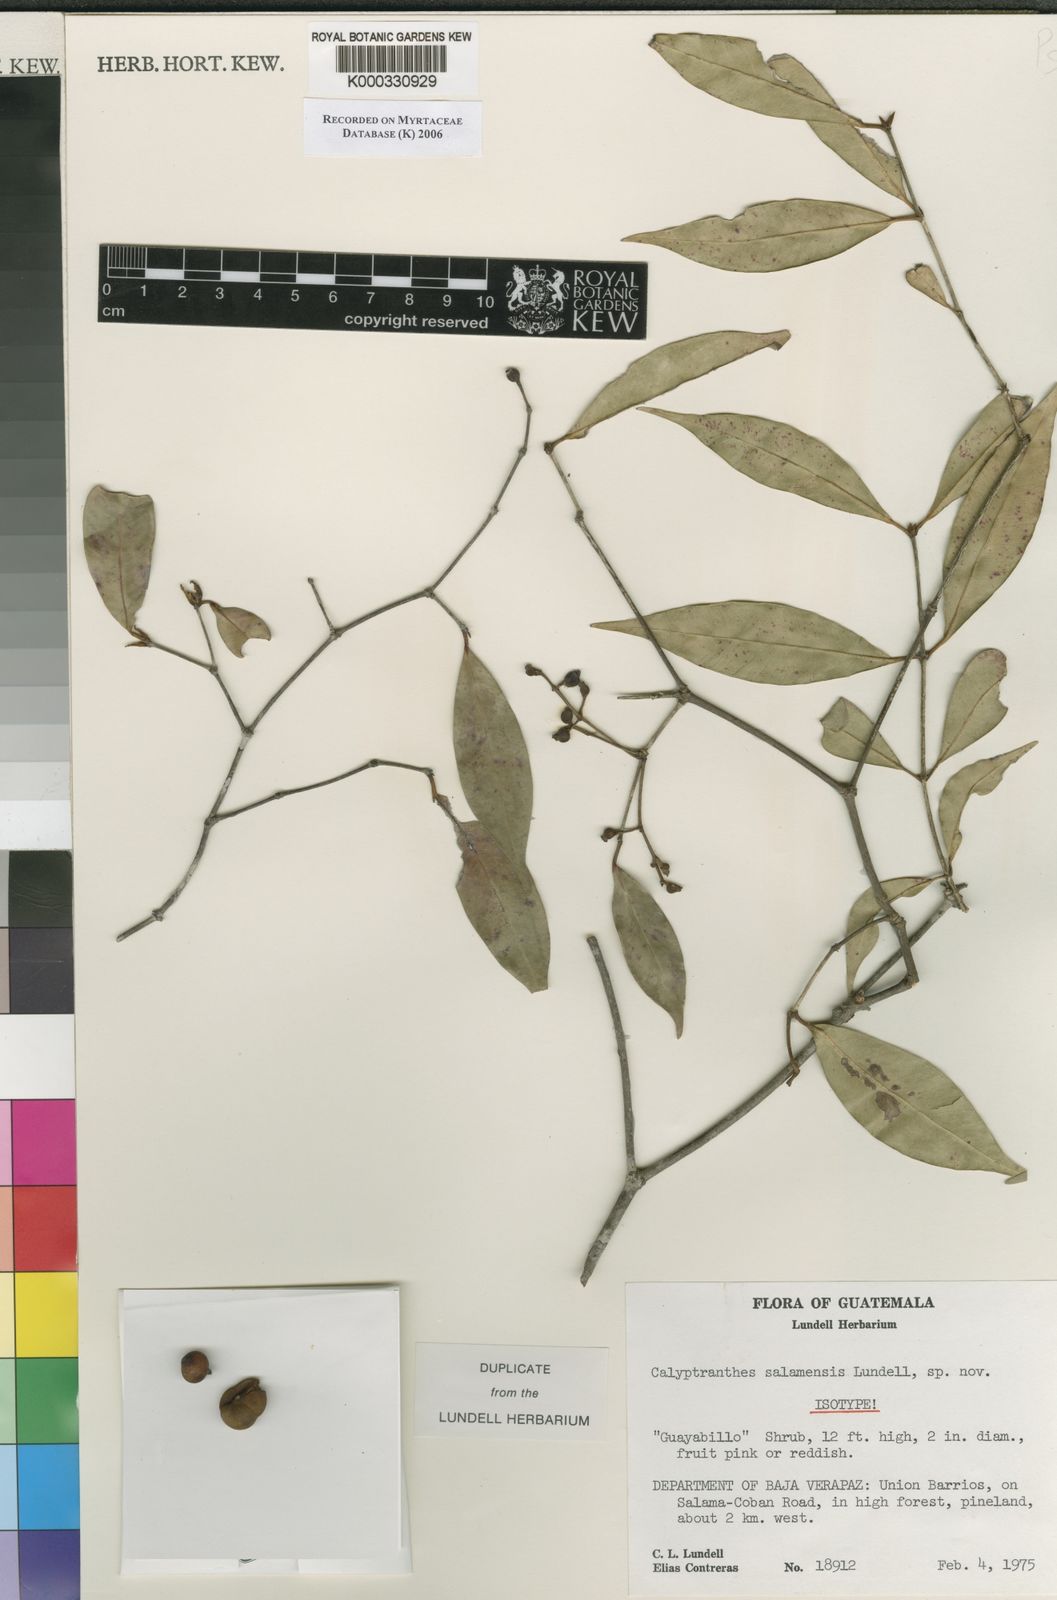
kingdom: Plantae
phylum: Tracheophyta
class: Magnoliopsida
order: Myrtales
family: Myrtaceae
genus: Myrcia
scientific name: Myrcia salamensis
